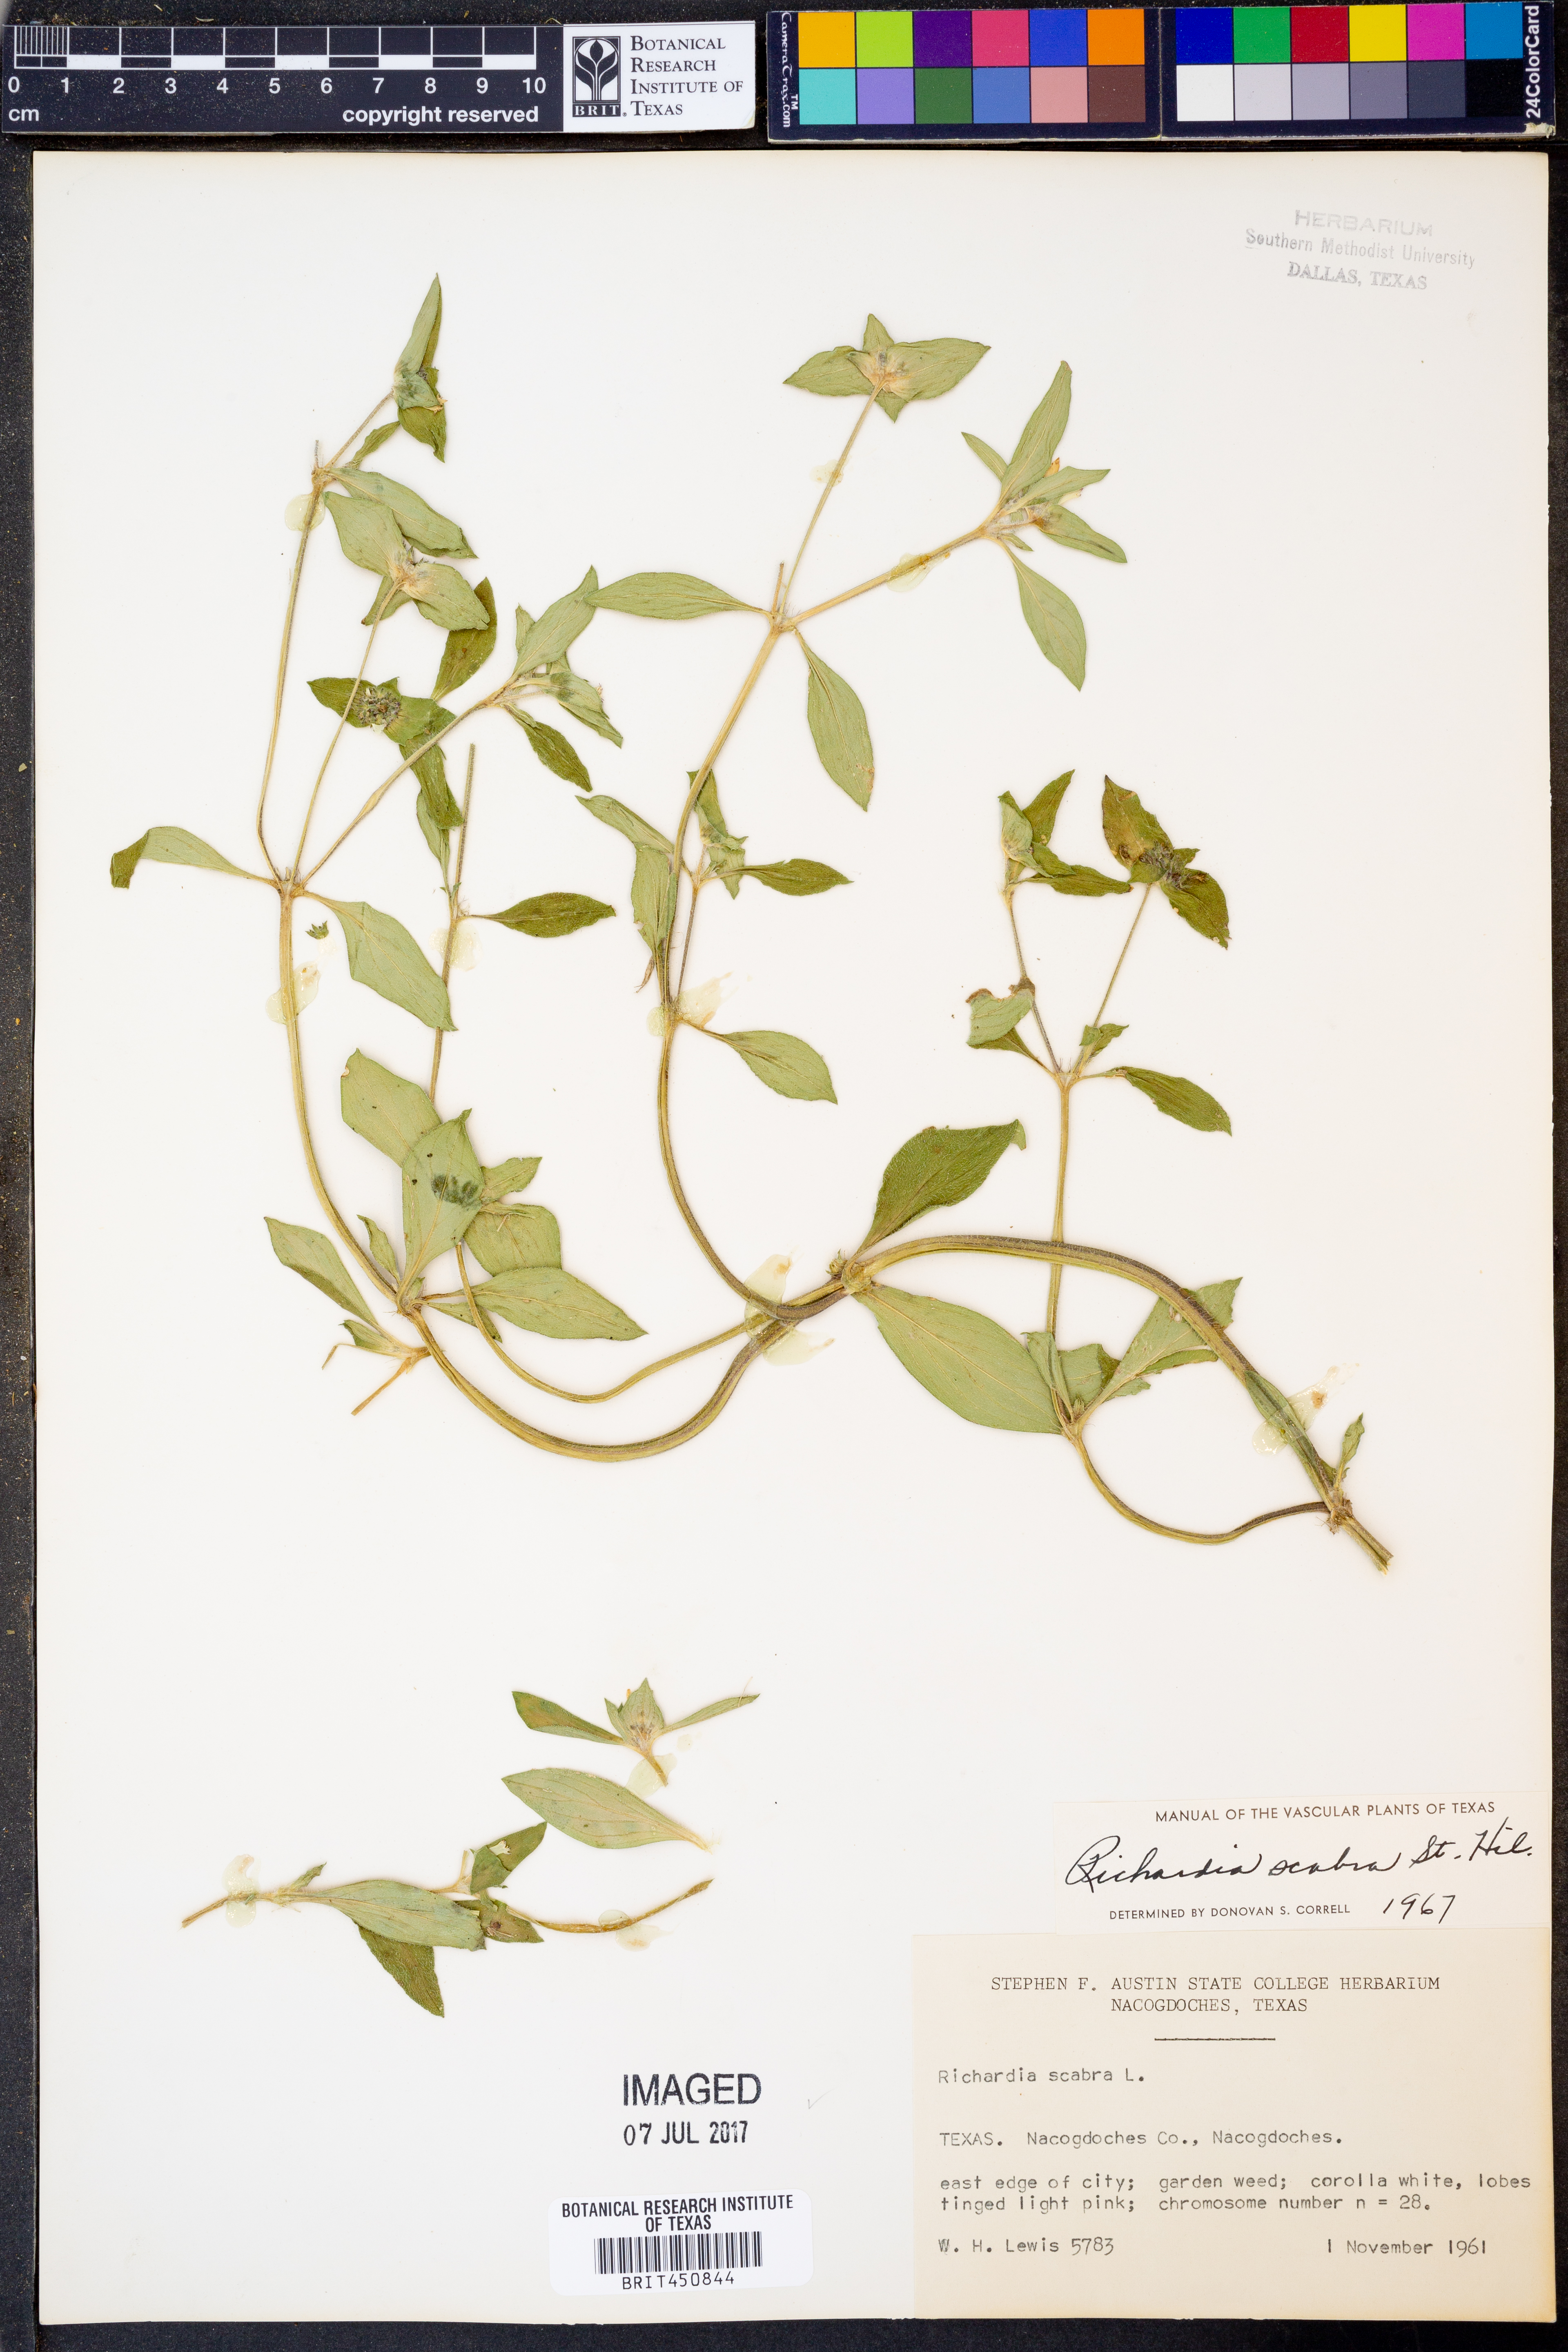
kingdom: Plantae
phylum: Tracheophyta
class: Magnoliopsida
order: Gentianales
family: Rubiaceae
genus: Richardia
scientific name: Richardia scabra
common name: Rough mexican clover
